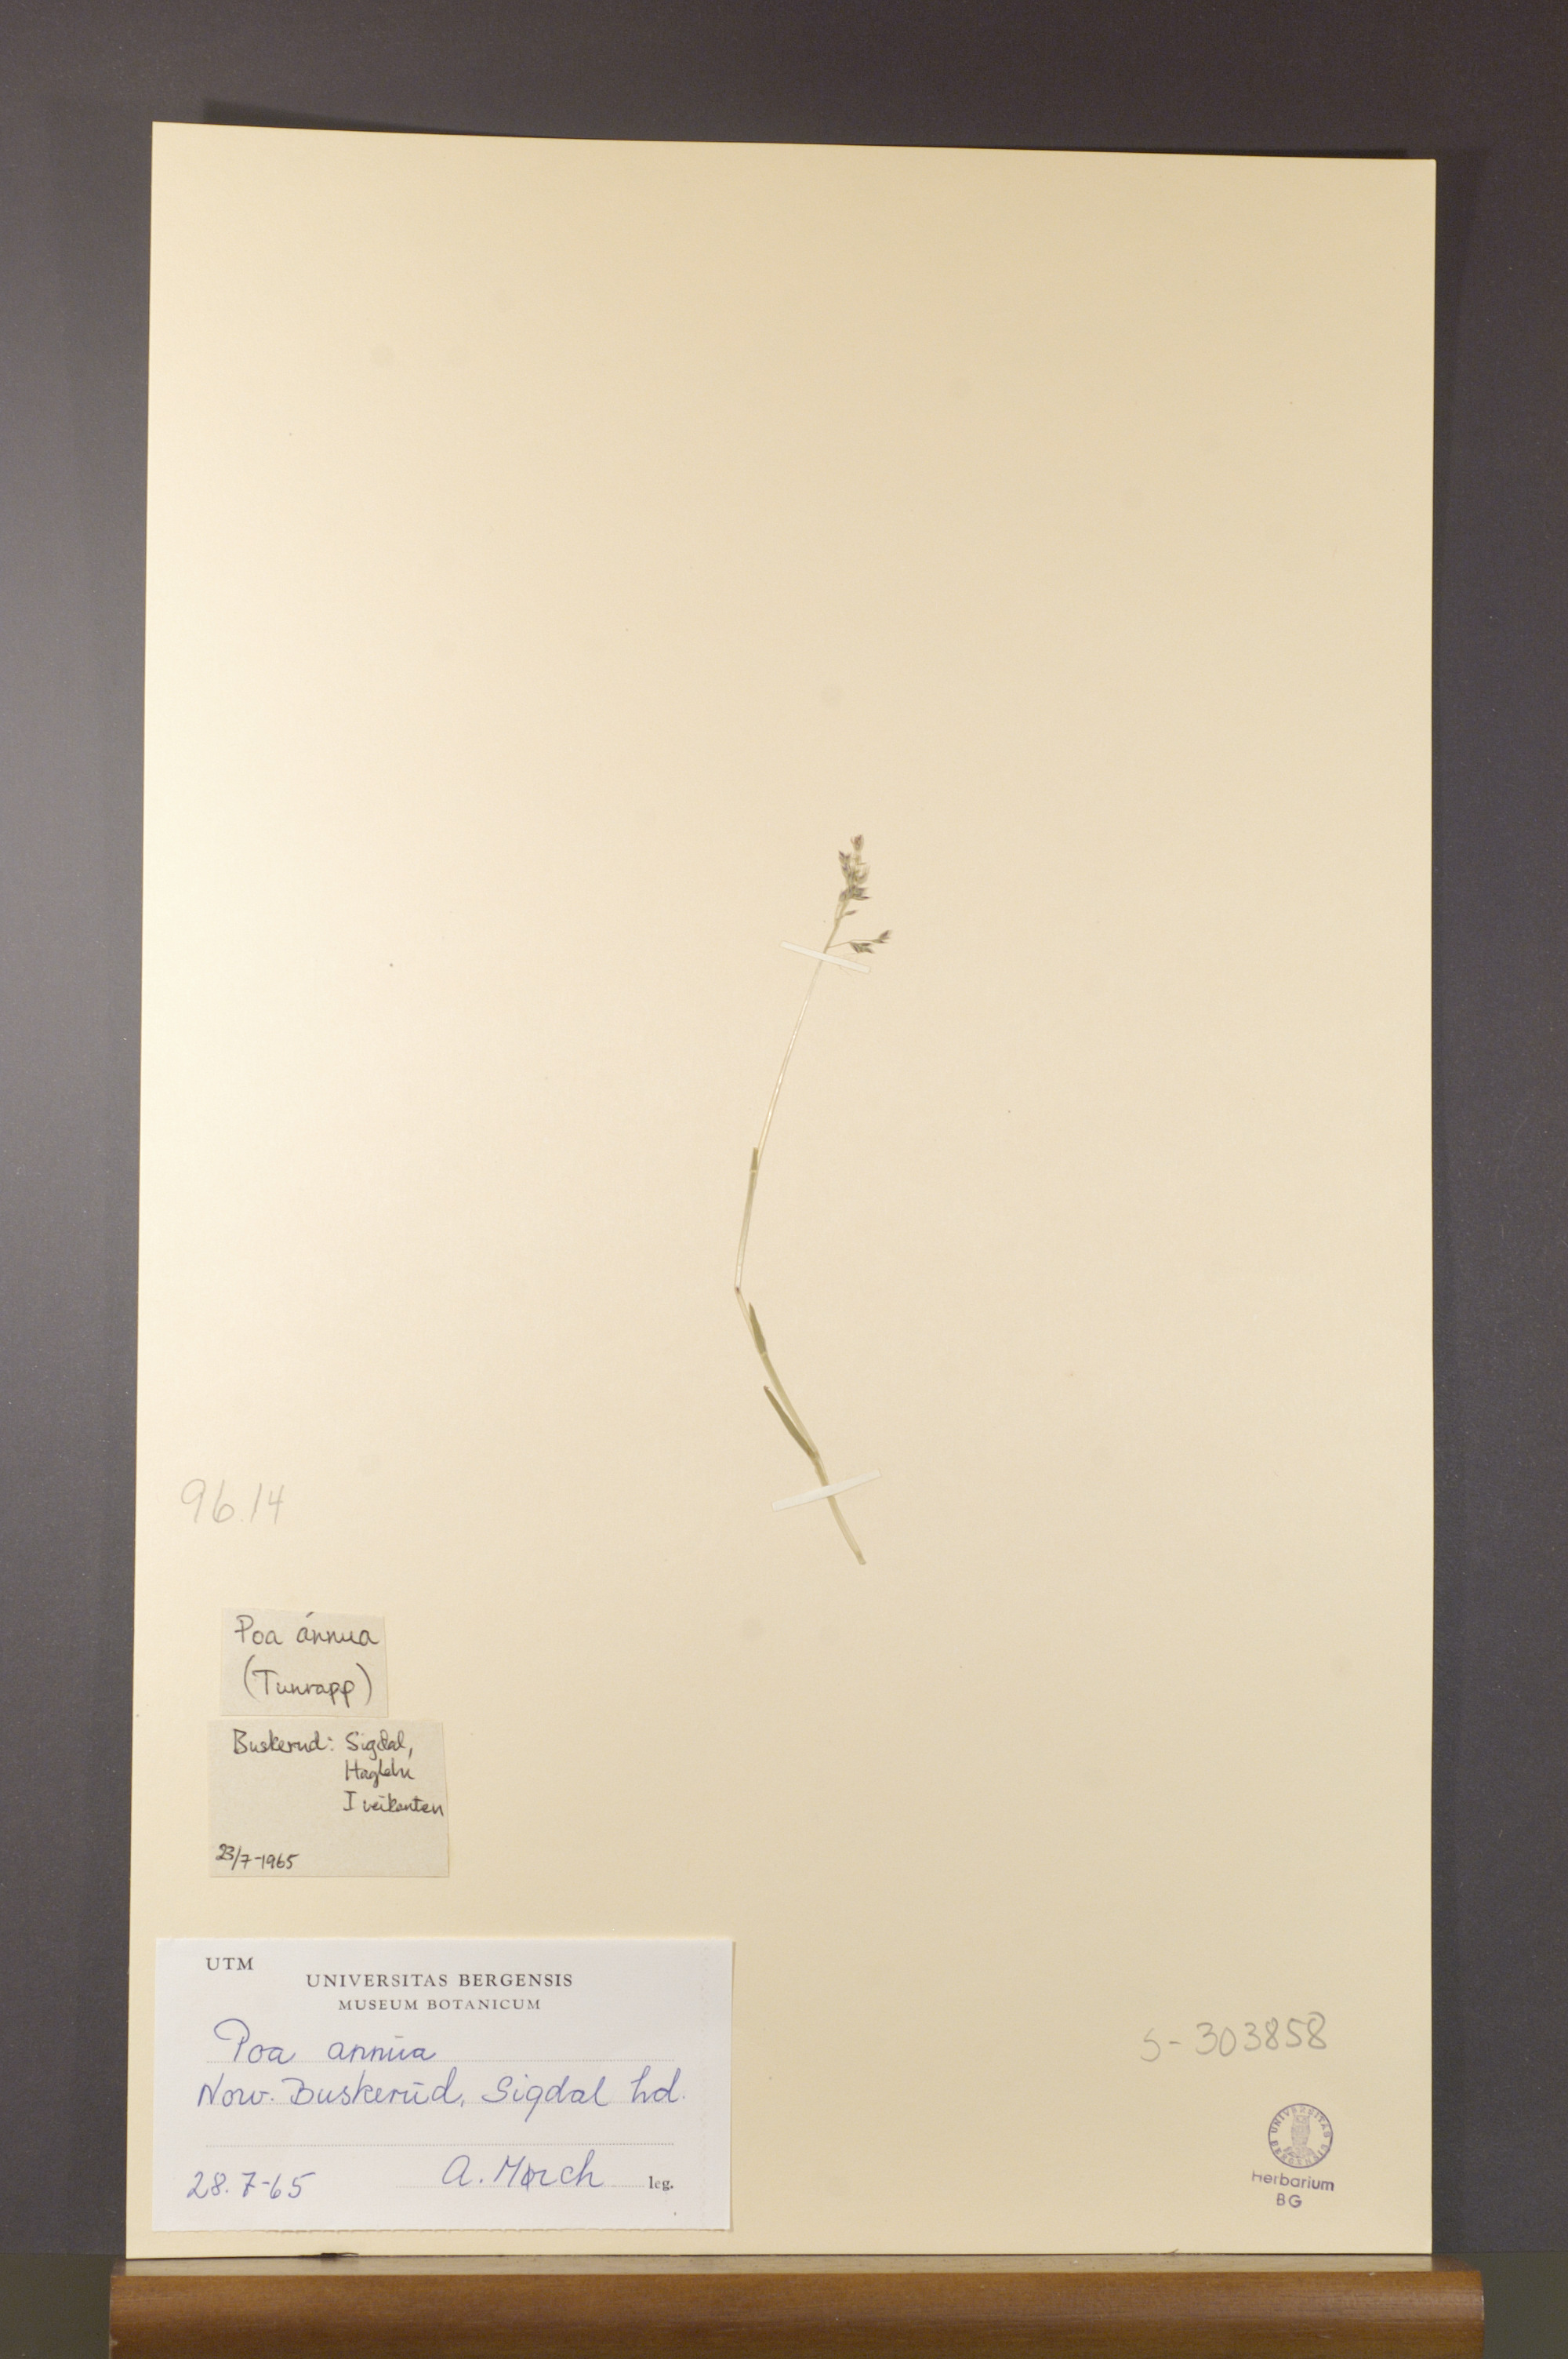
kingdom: Plantae
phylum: Tracheophyta
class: Liliopsida
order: Poales
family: Poaceae
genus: Poa
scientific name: Poa annua
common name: Annual bluegrass
